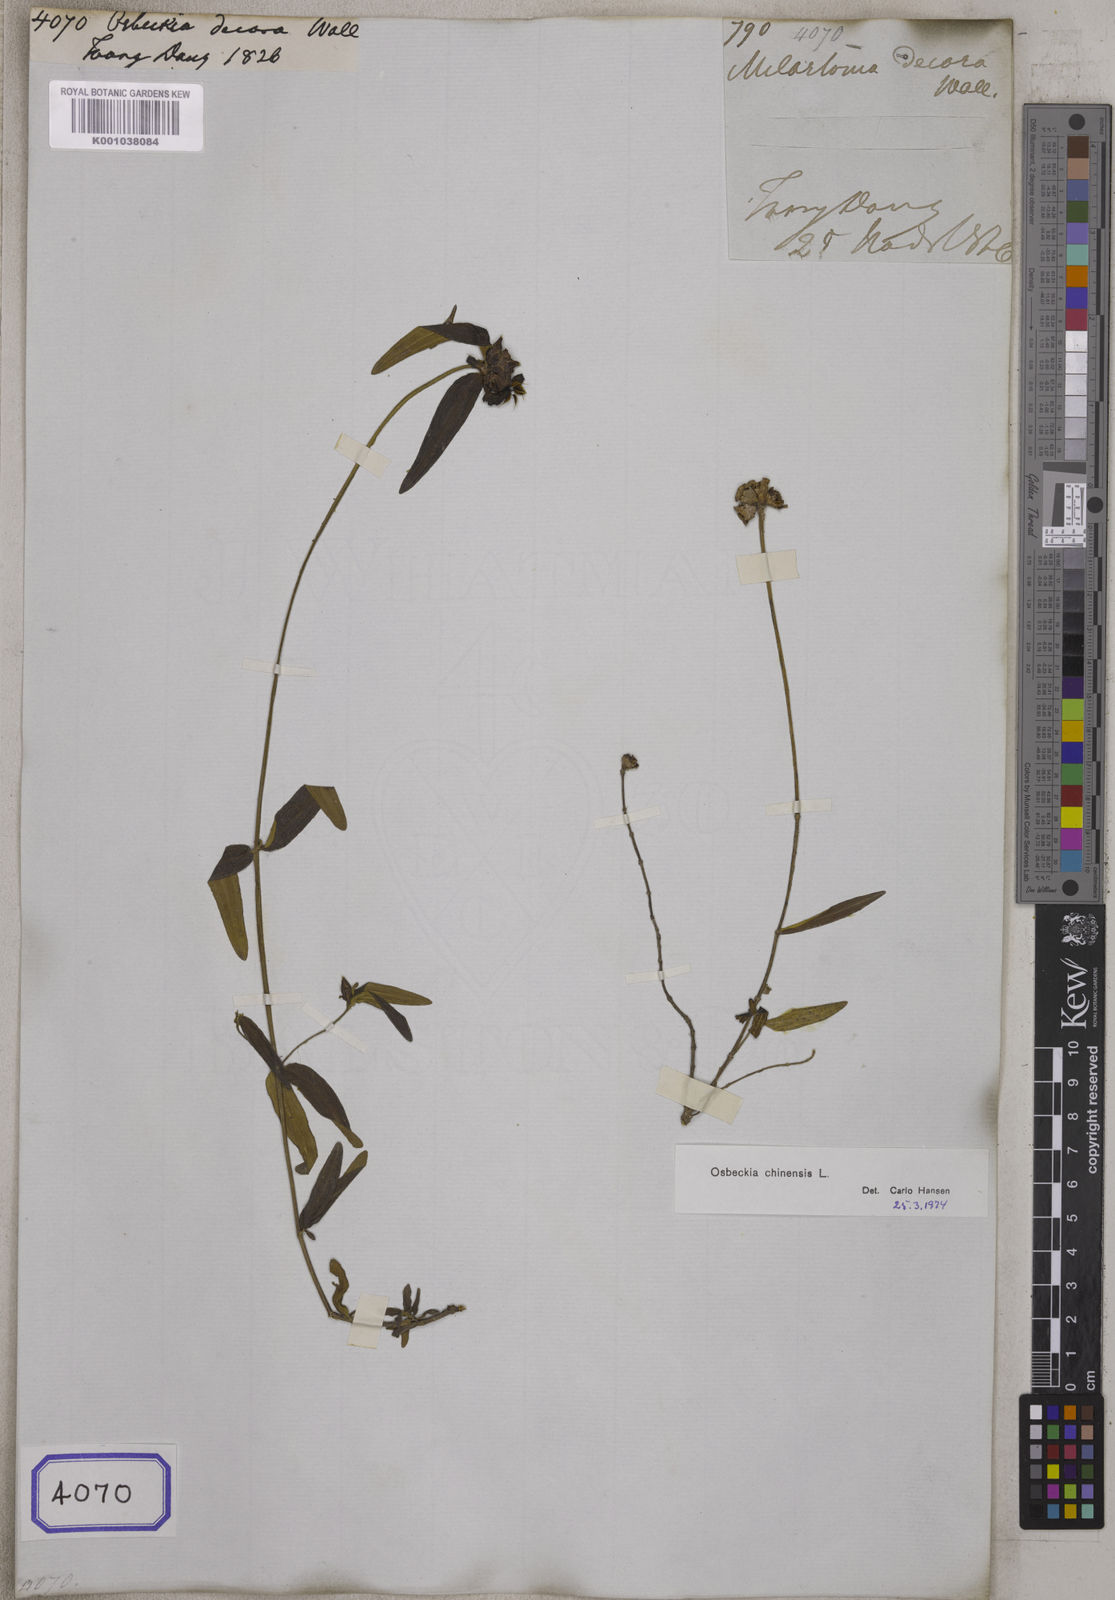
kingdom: Plantae
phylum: Tracheophyta
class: Magnoliopsida
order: Myrtales
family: Melastomataceae
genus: Osbeckia
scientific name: Osbeckia chinensis
